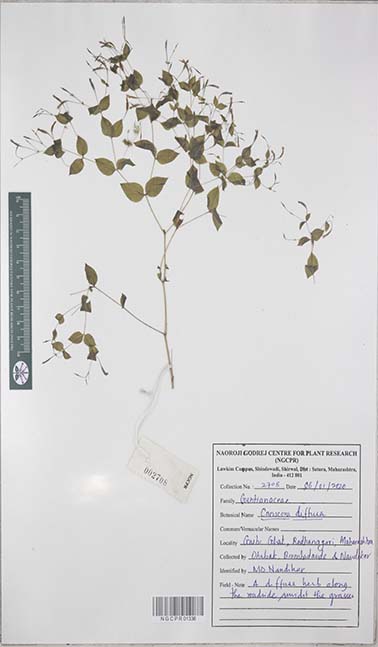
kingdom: Plantae
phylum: Tracheophyta
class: Magnoliopsida
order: Gentianales
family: Gentianaceae
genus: Canscora
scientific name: Canscora diffusa
